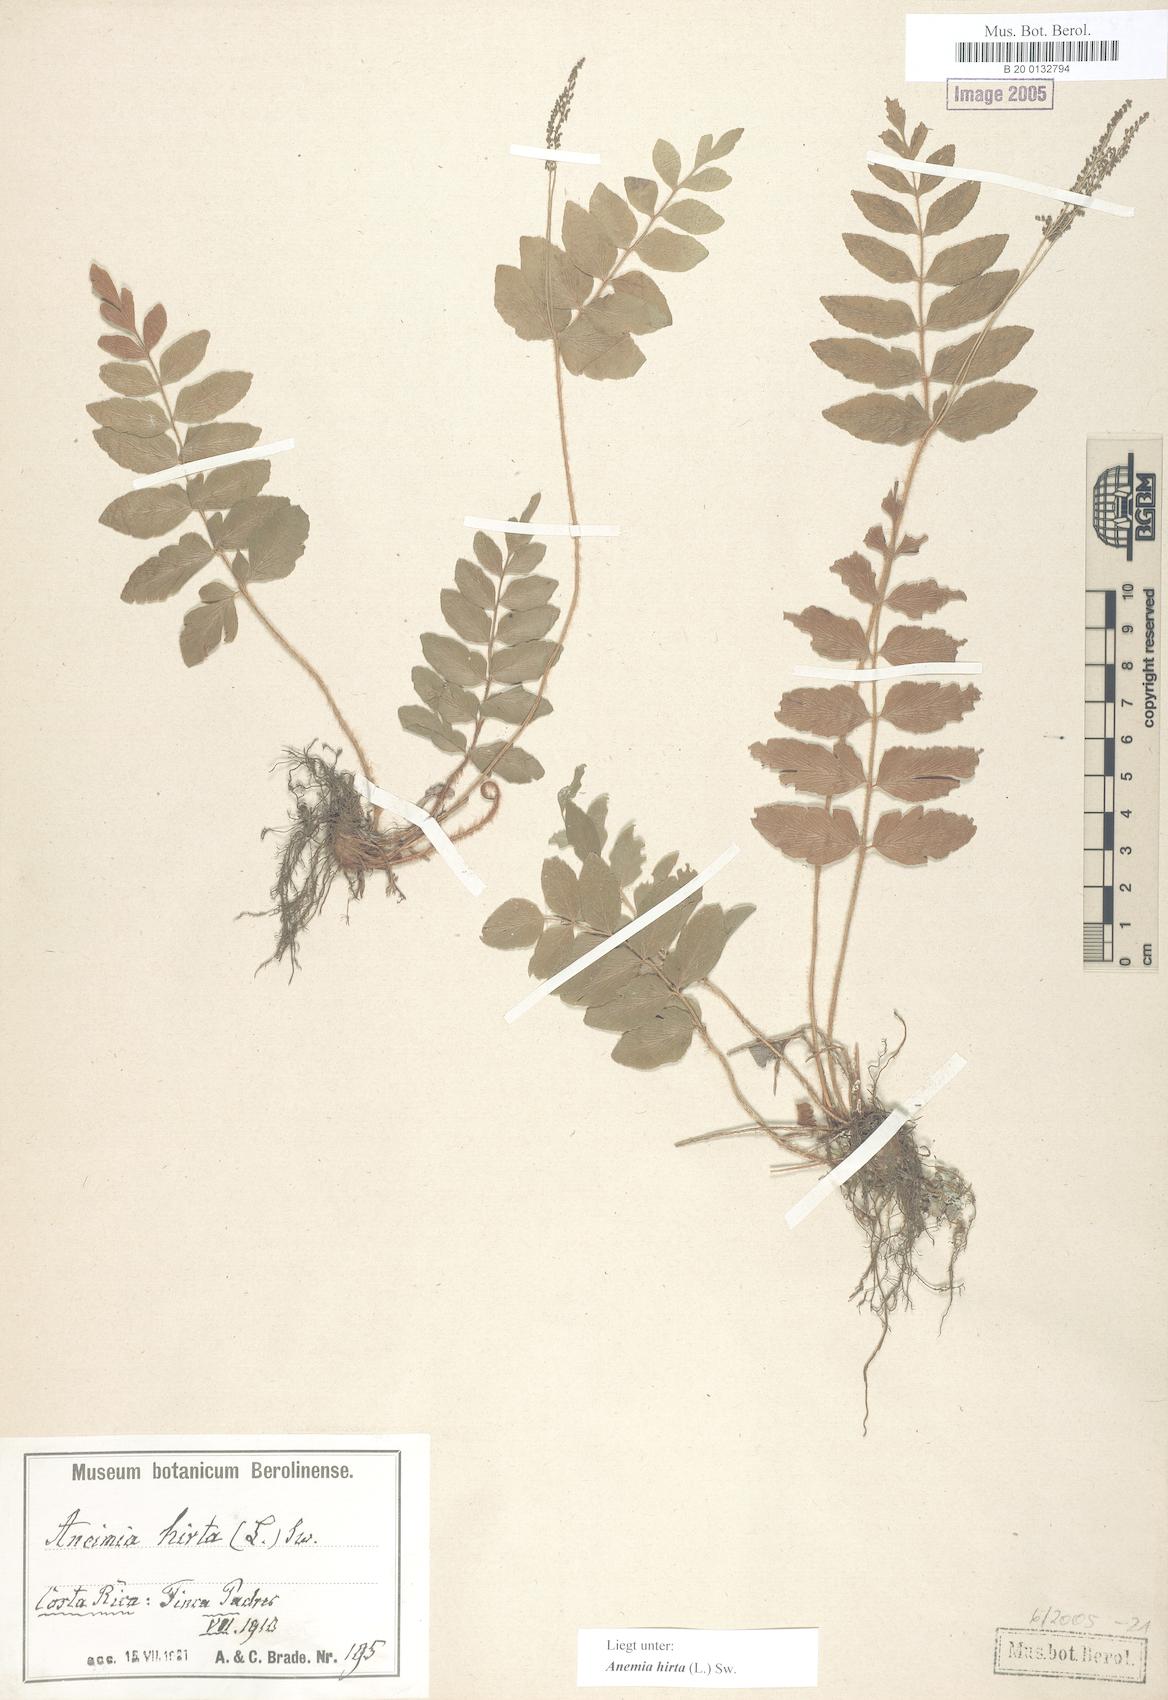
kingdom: Plantae
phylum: Tracheophyta
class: Polypodiopsida
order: Schizaeales
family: Anemiaceae
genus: Anemia
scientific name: Anemia hirta
